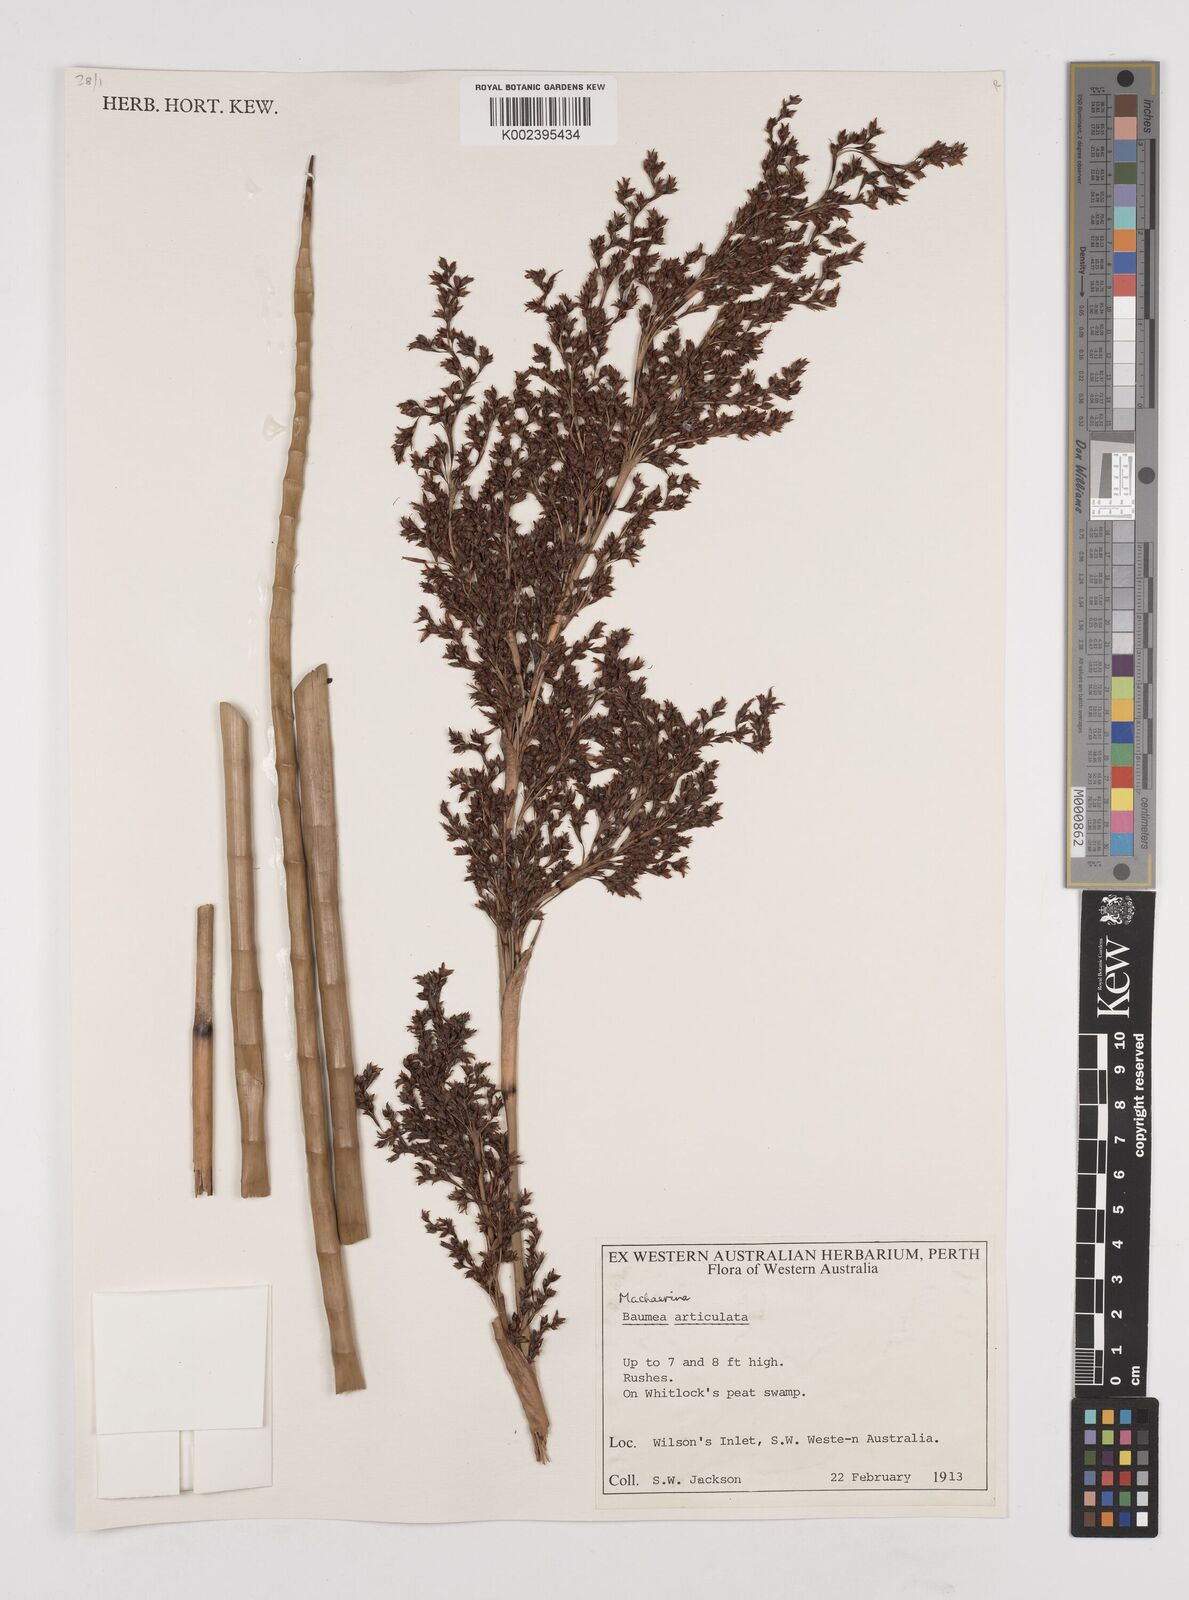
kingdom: Plantae
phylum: Tracheophyta
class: Liliopsida
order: Poales
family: Cyperaceae
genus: Machaerina
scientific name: Machaerina articulata
